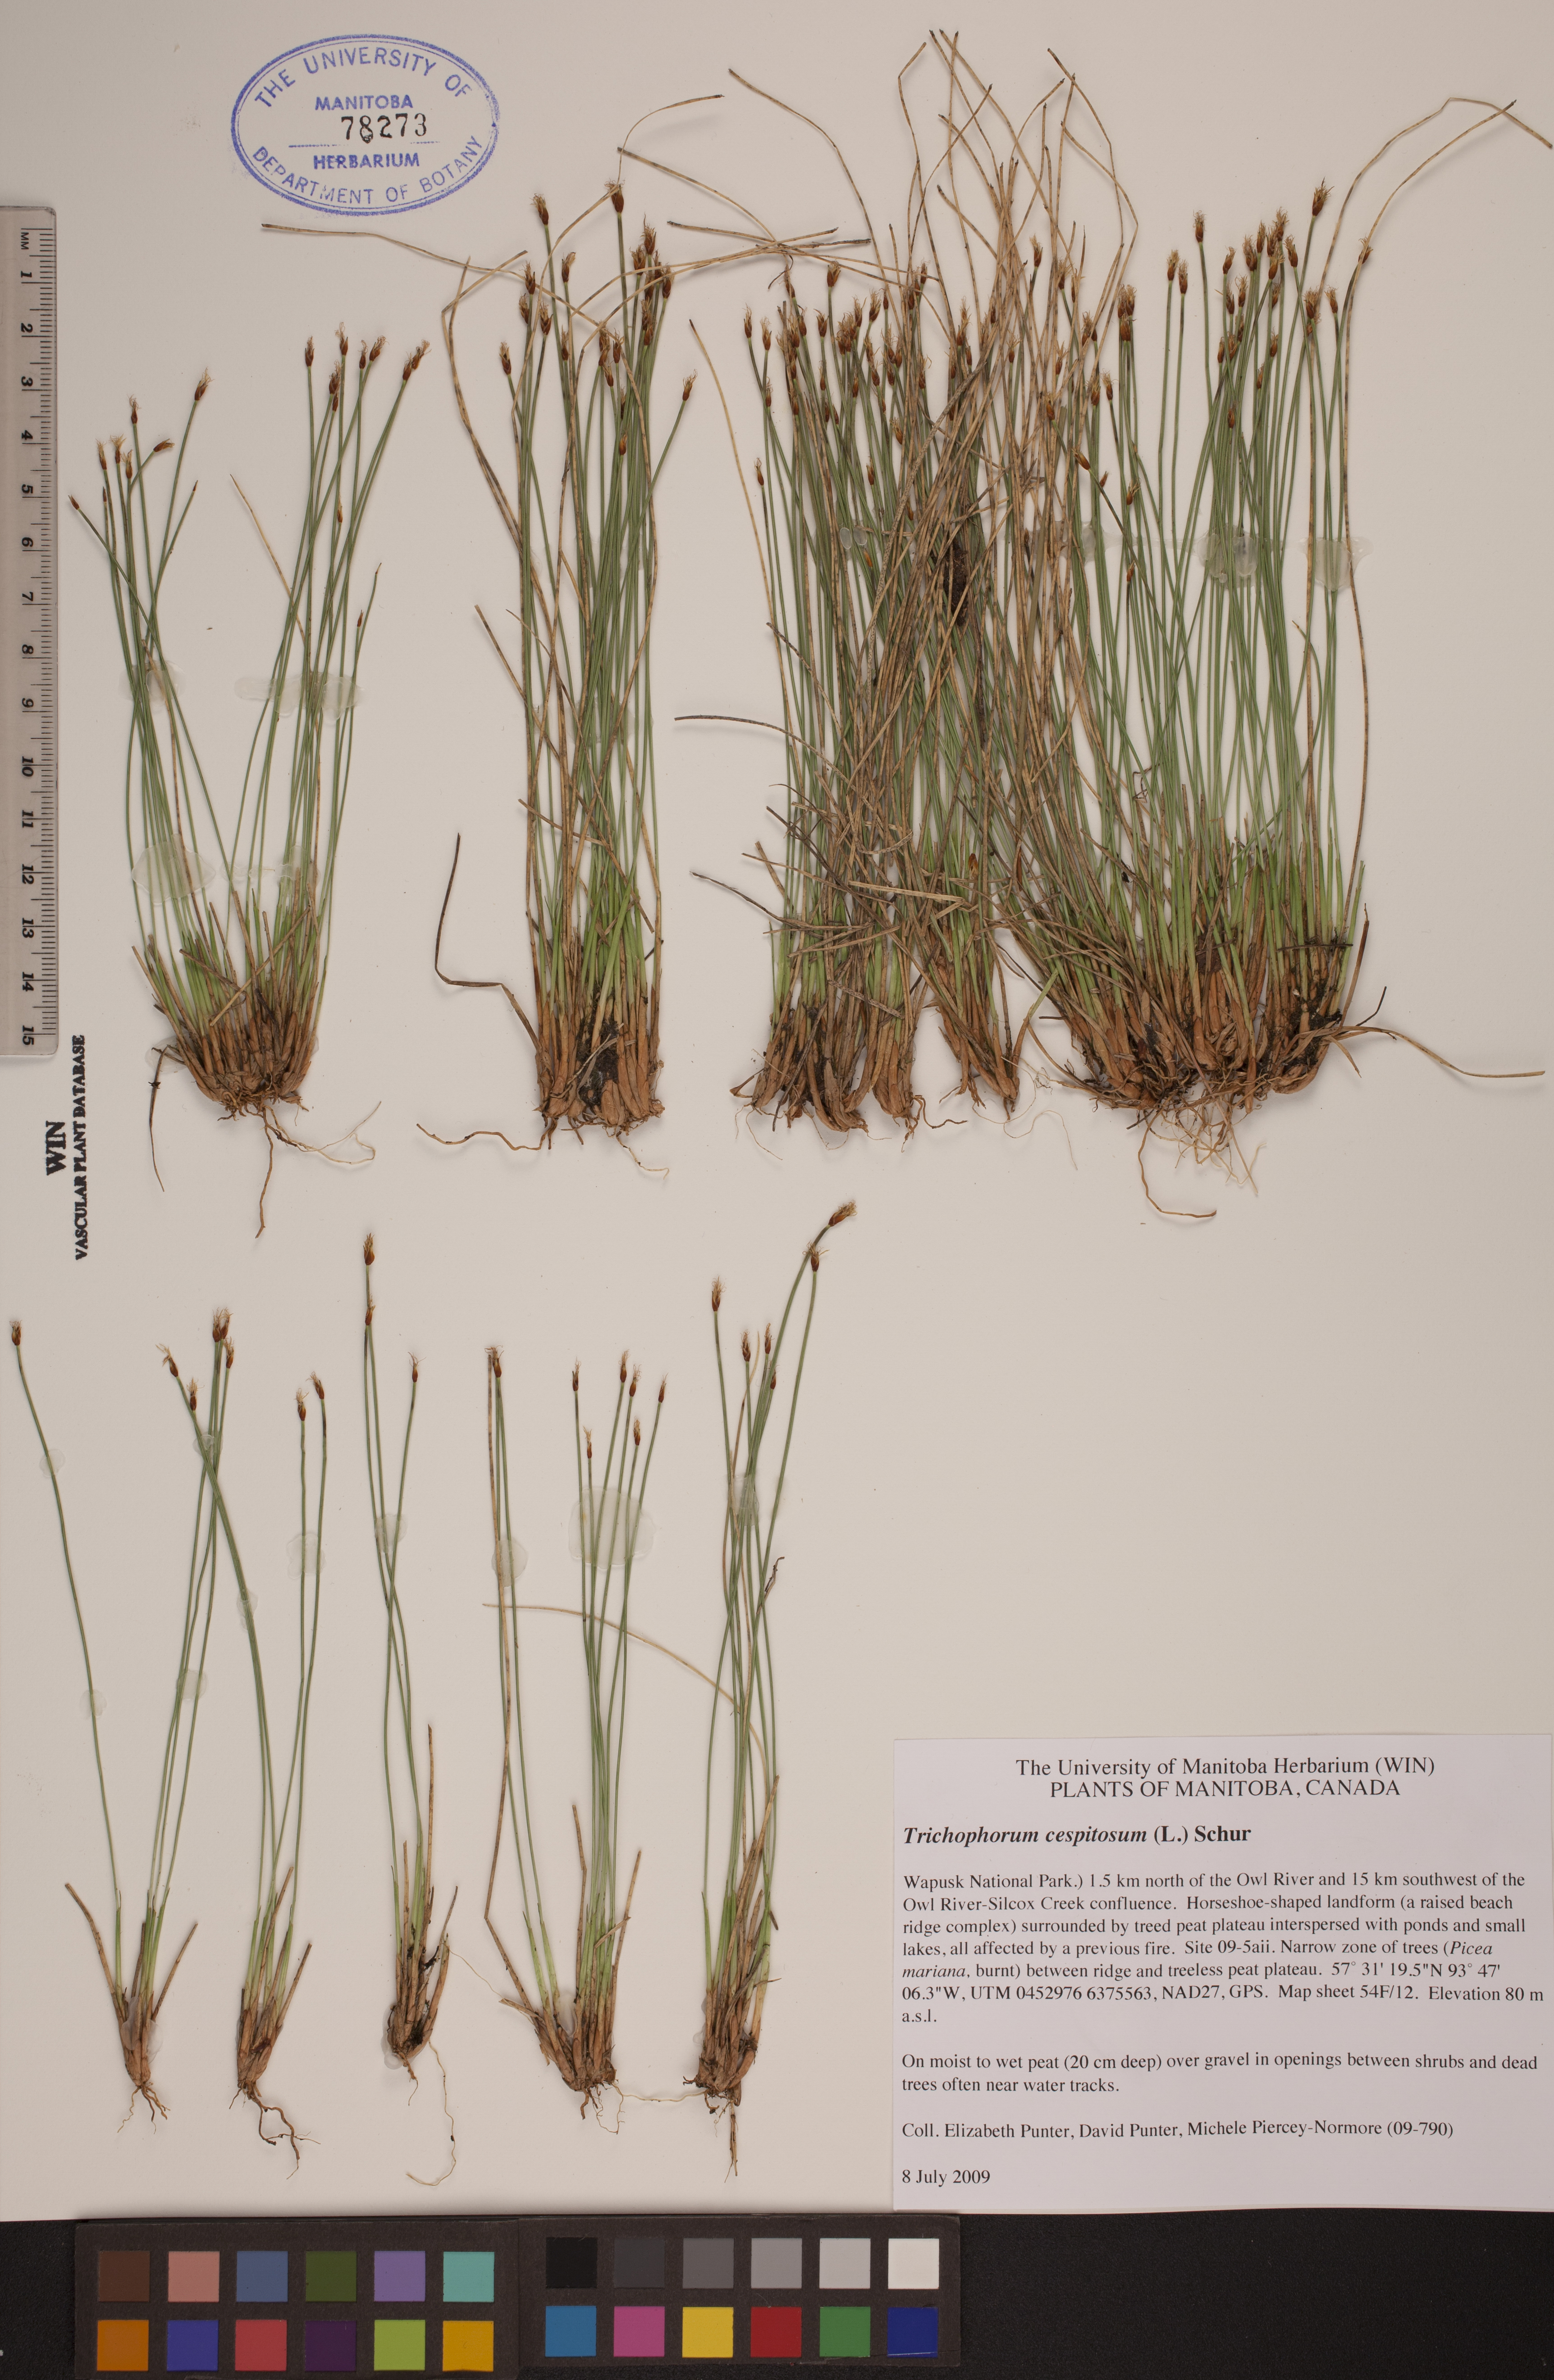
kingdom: Plantae
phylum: Tracheophyta
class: Liliopsida
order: Poales
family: Cyperaceae
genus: Trichophorum
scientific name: Trichophorum cespitosum
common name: Cespitose bulrush
